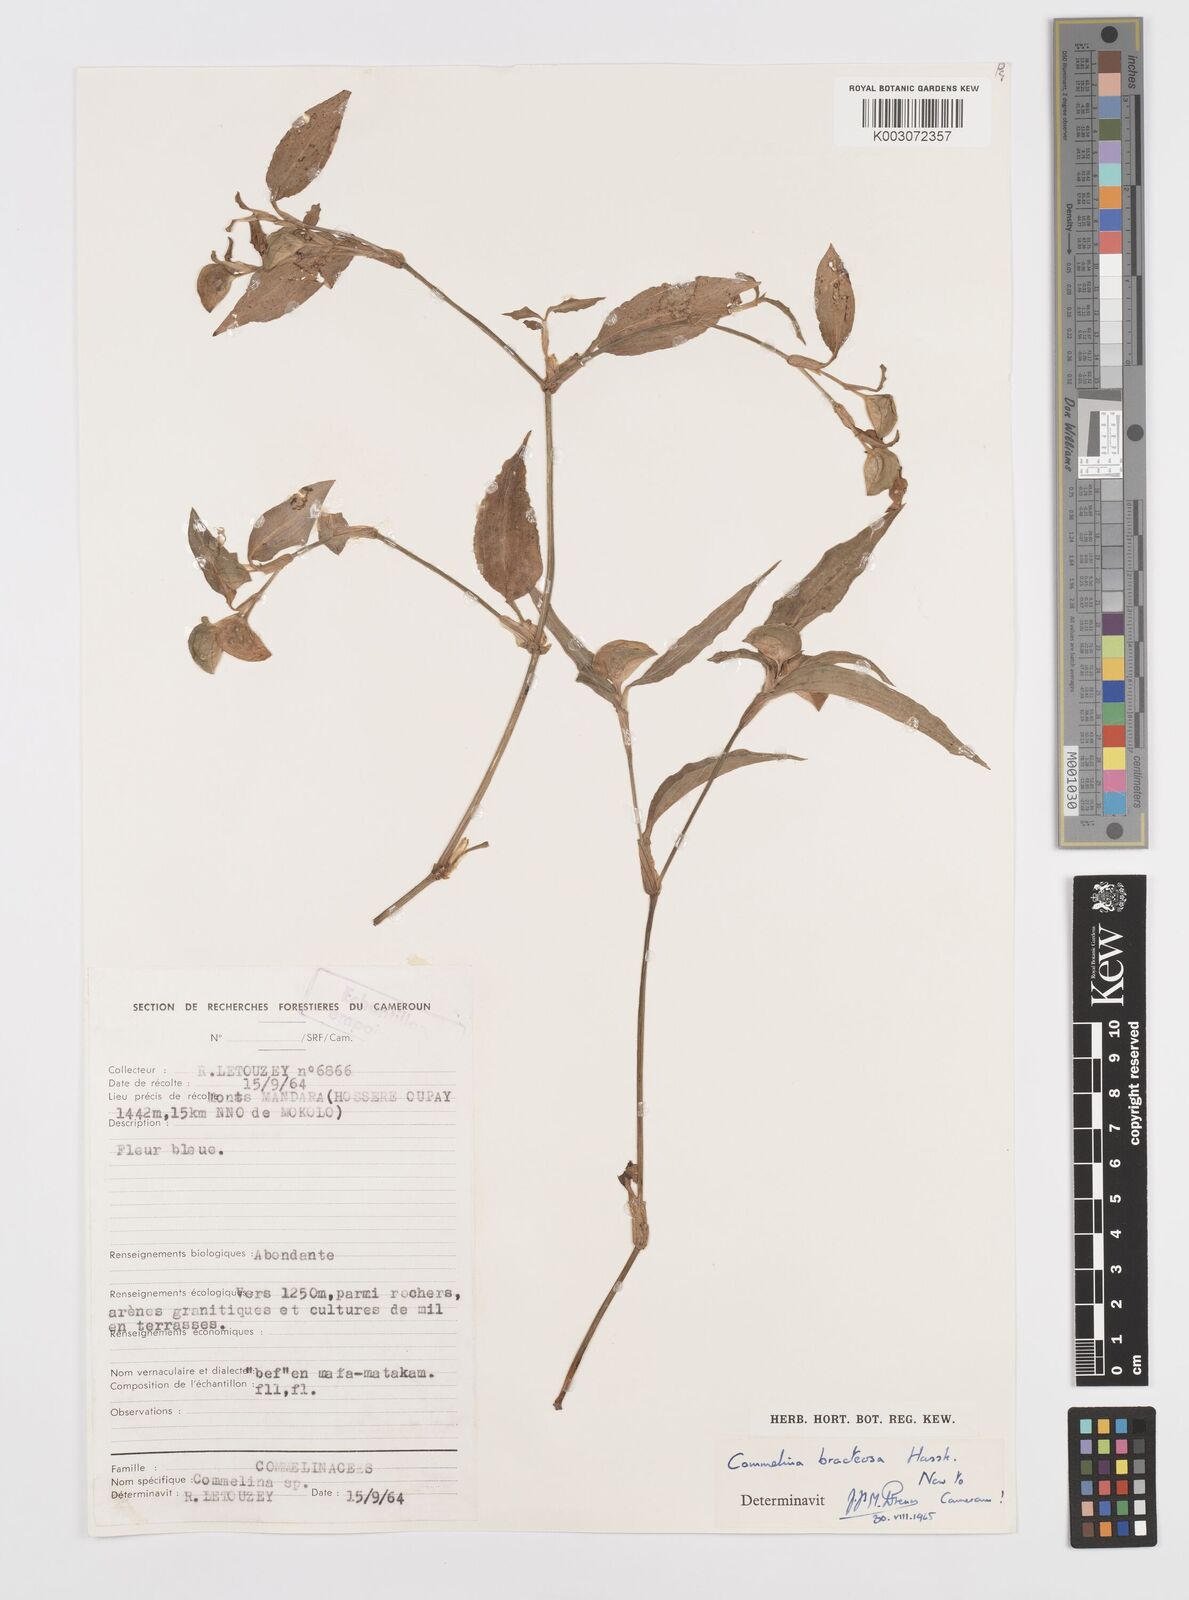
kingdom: Plantae
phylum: Tracheophyta
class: Liliopsida
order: Commelinales
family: Commelinaceae
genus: Commelina
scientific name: Commelina bracteosa
